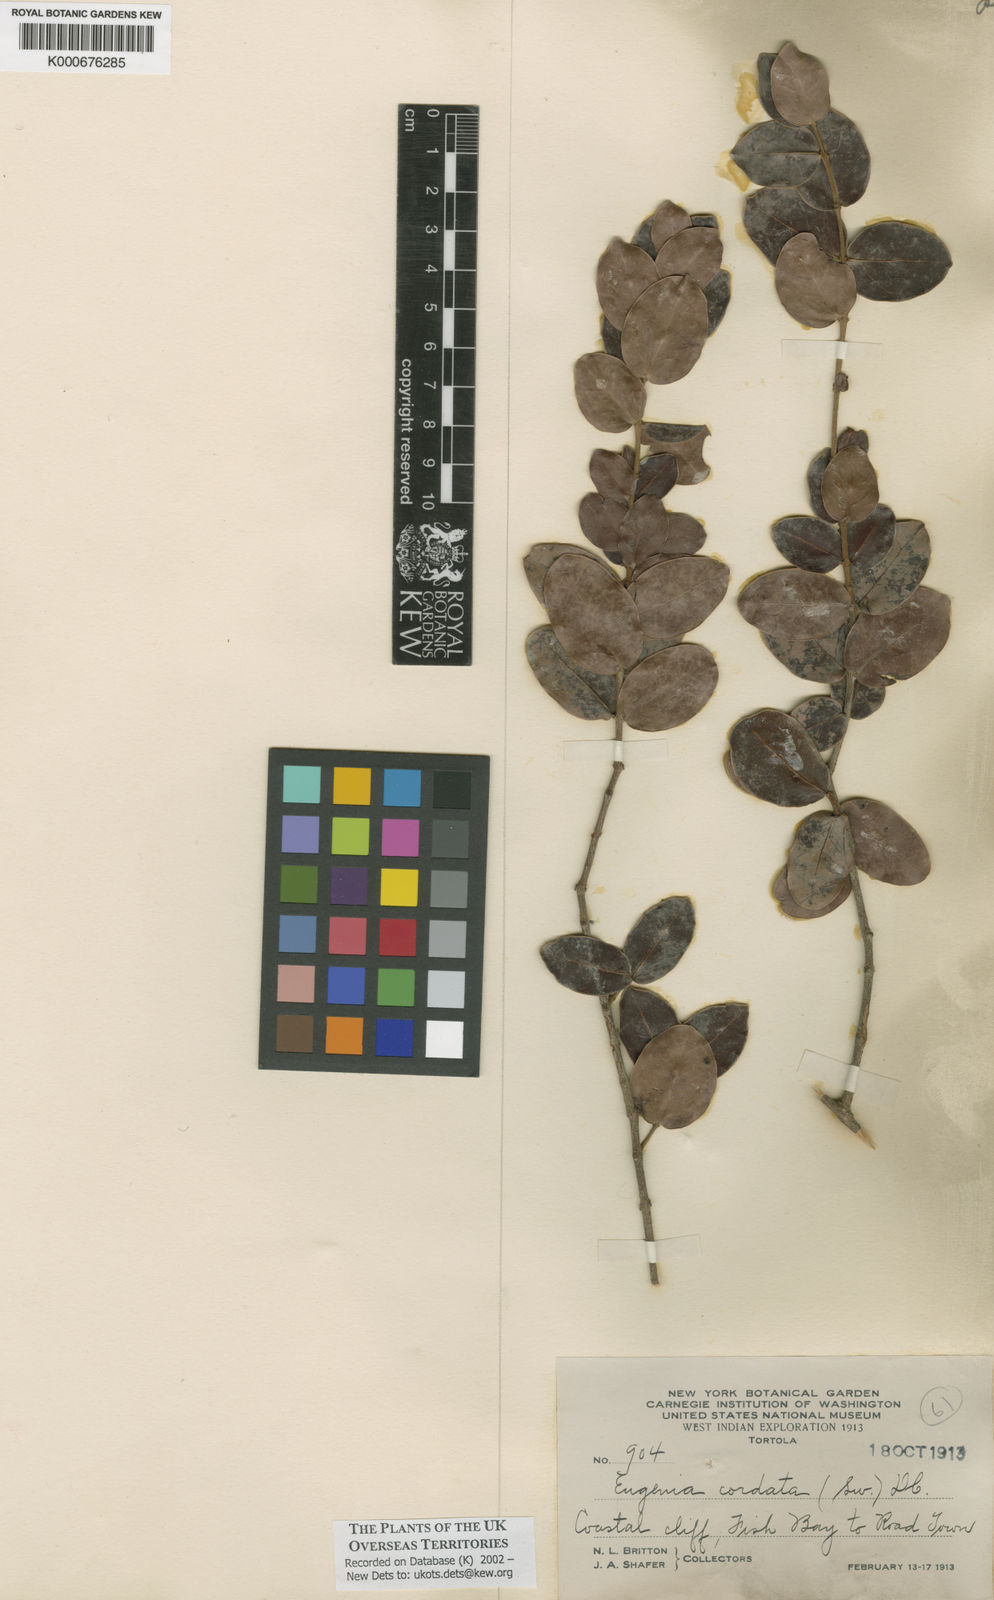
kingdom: Plantae
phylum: Tracheophyta
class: Magnoliopsida
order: Myrtales
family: Myrtaceae
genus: Eugenia
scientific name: Eugenia cordata
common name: Lathberry
